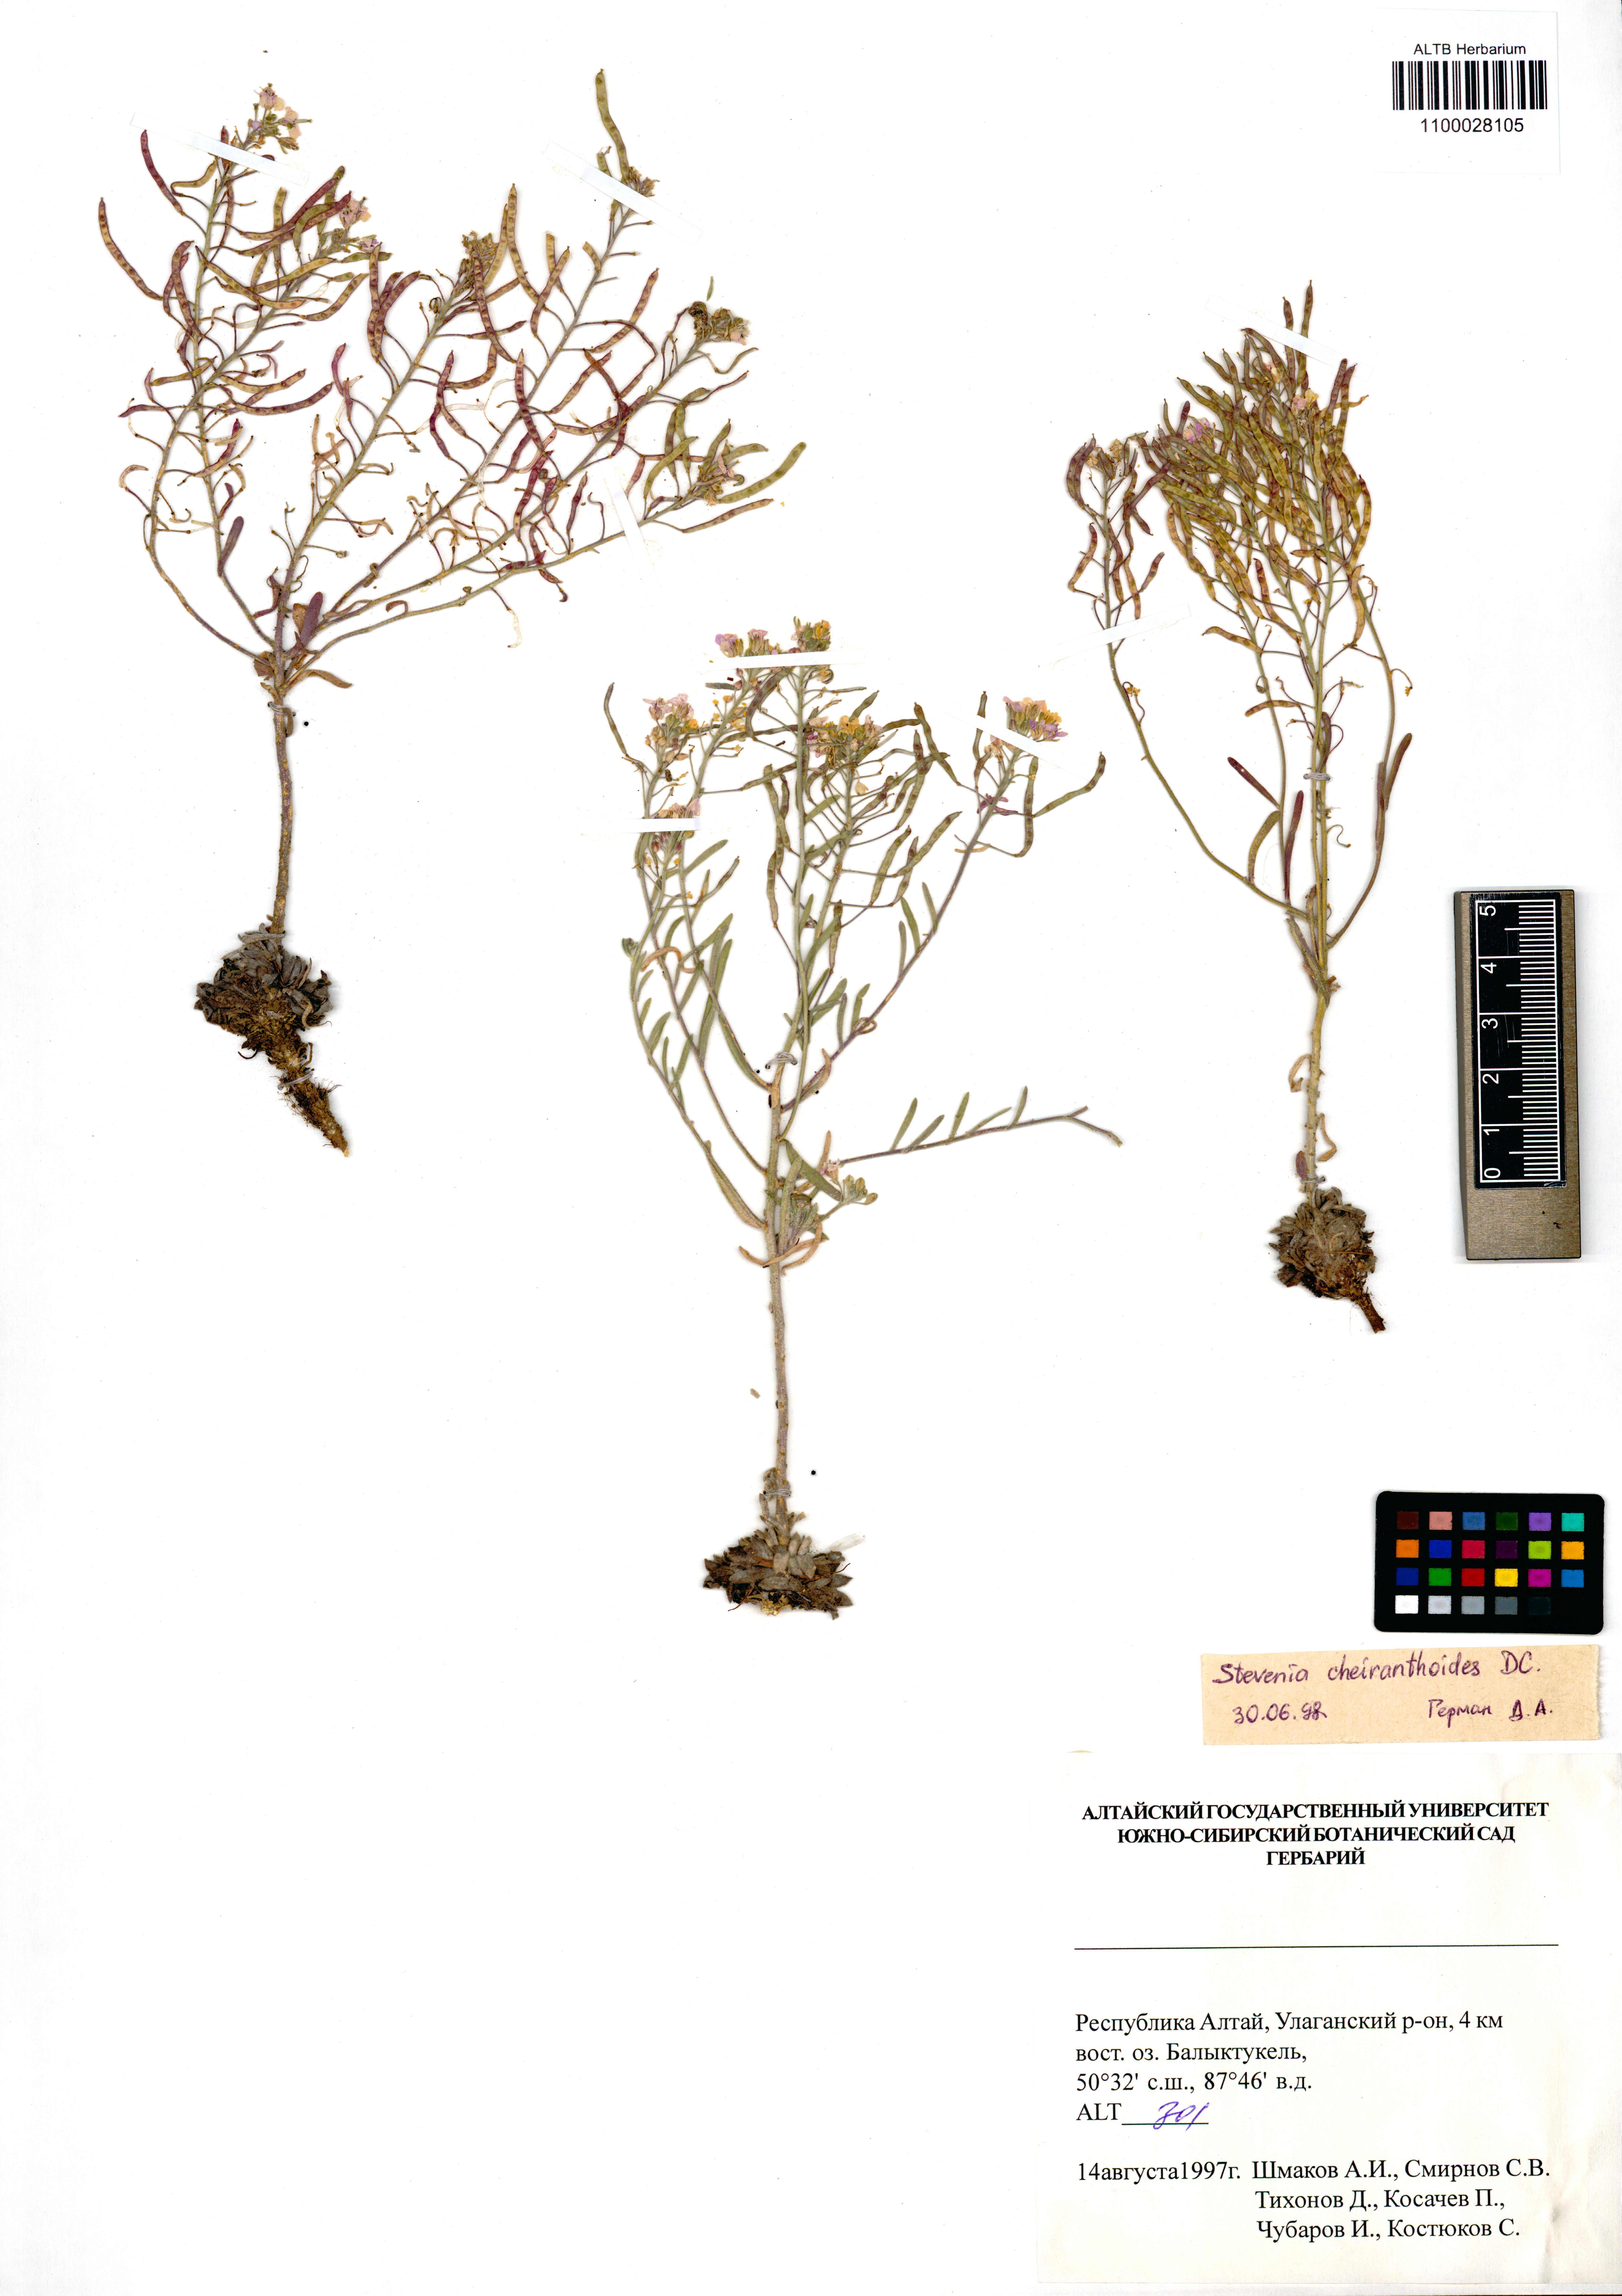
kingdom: Plantae
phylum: Tracheophyta
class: Magnoliopsida
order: Brassicales
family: Brassicaceae
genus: Stevenia
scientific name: Stevenia incarnata
